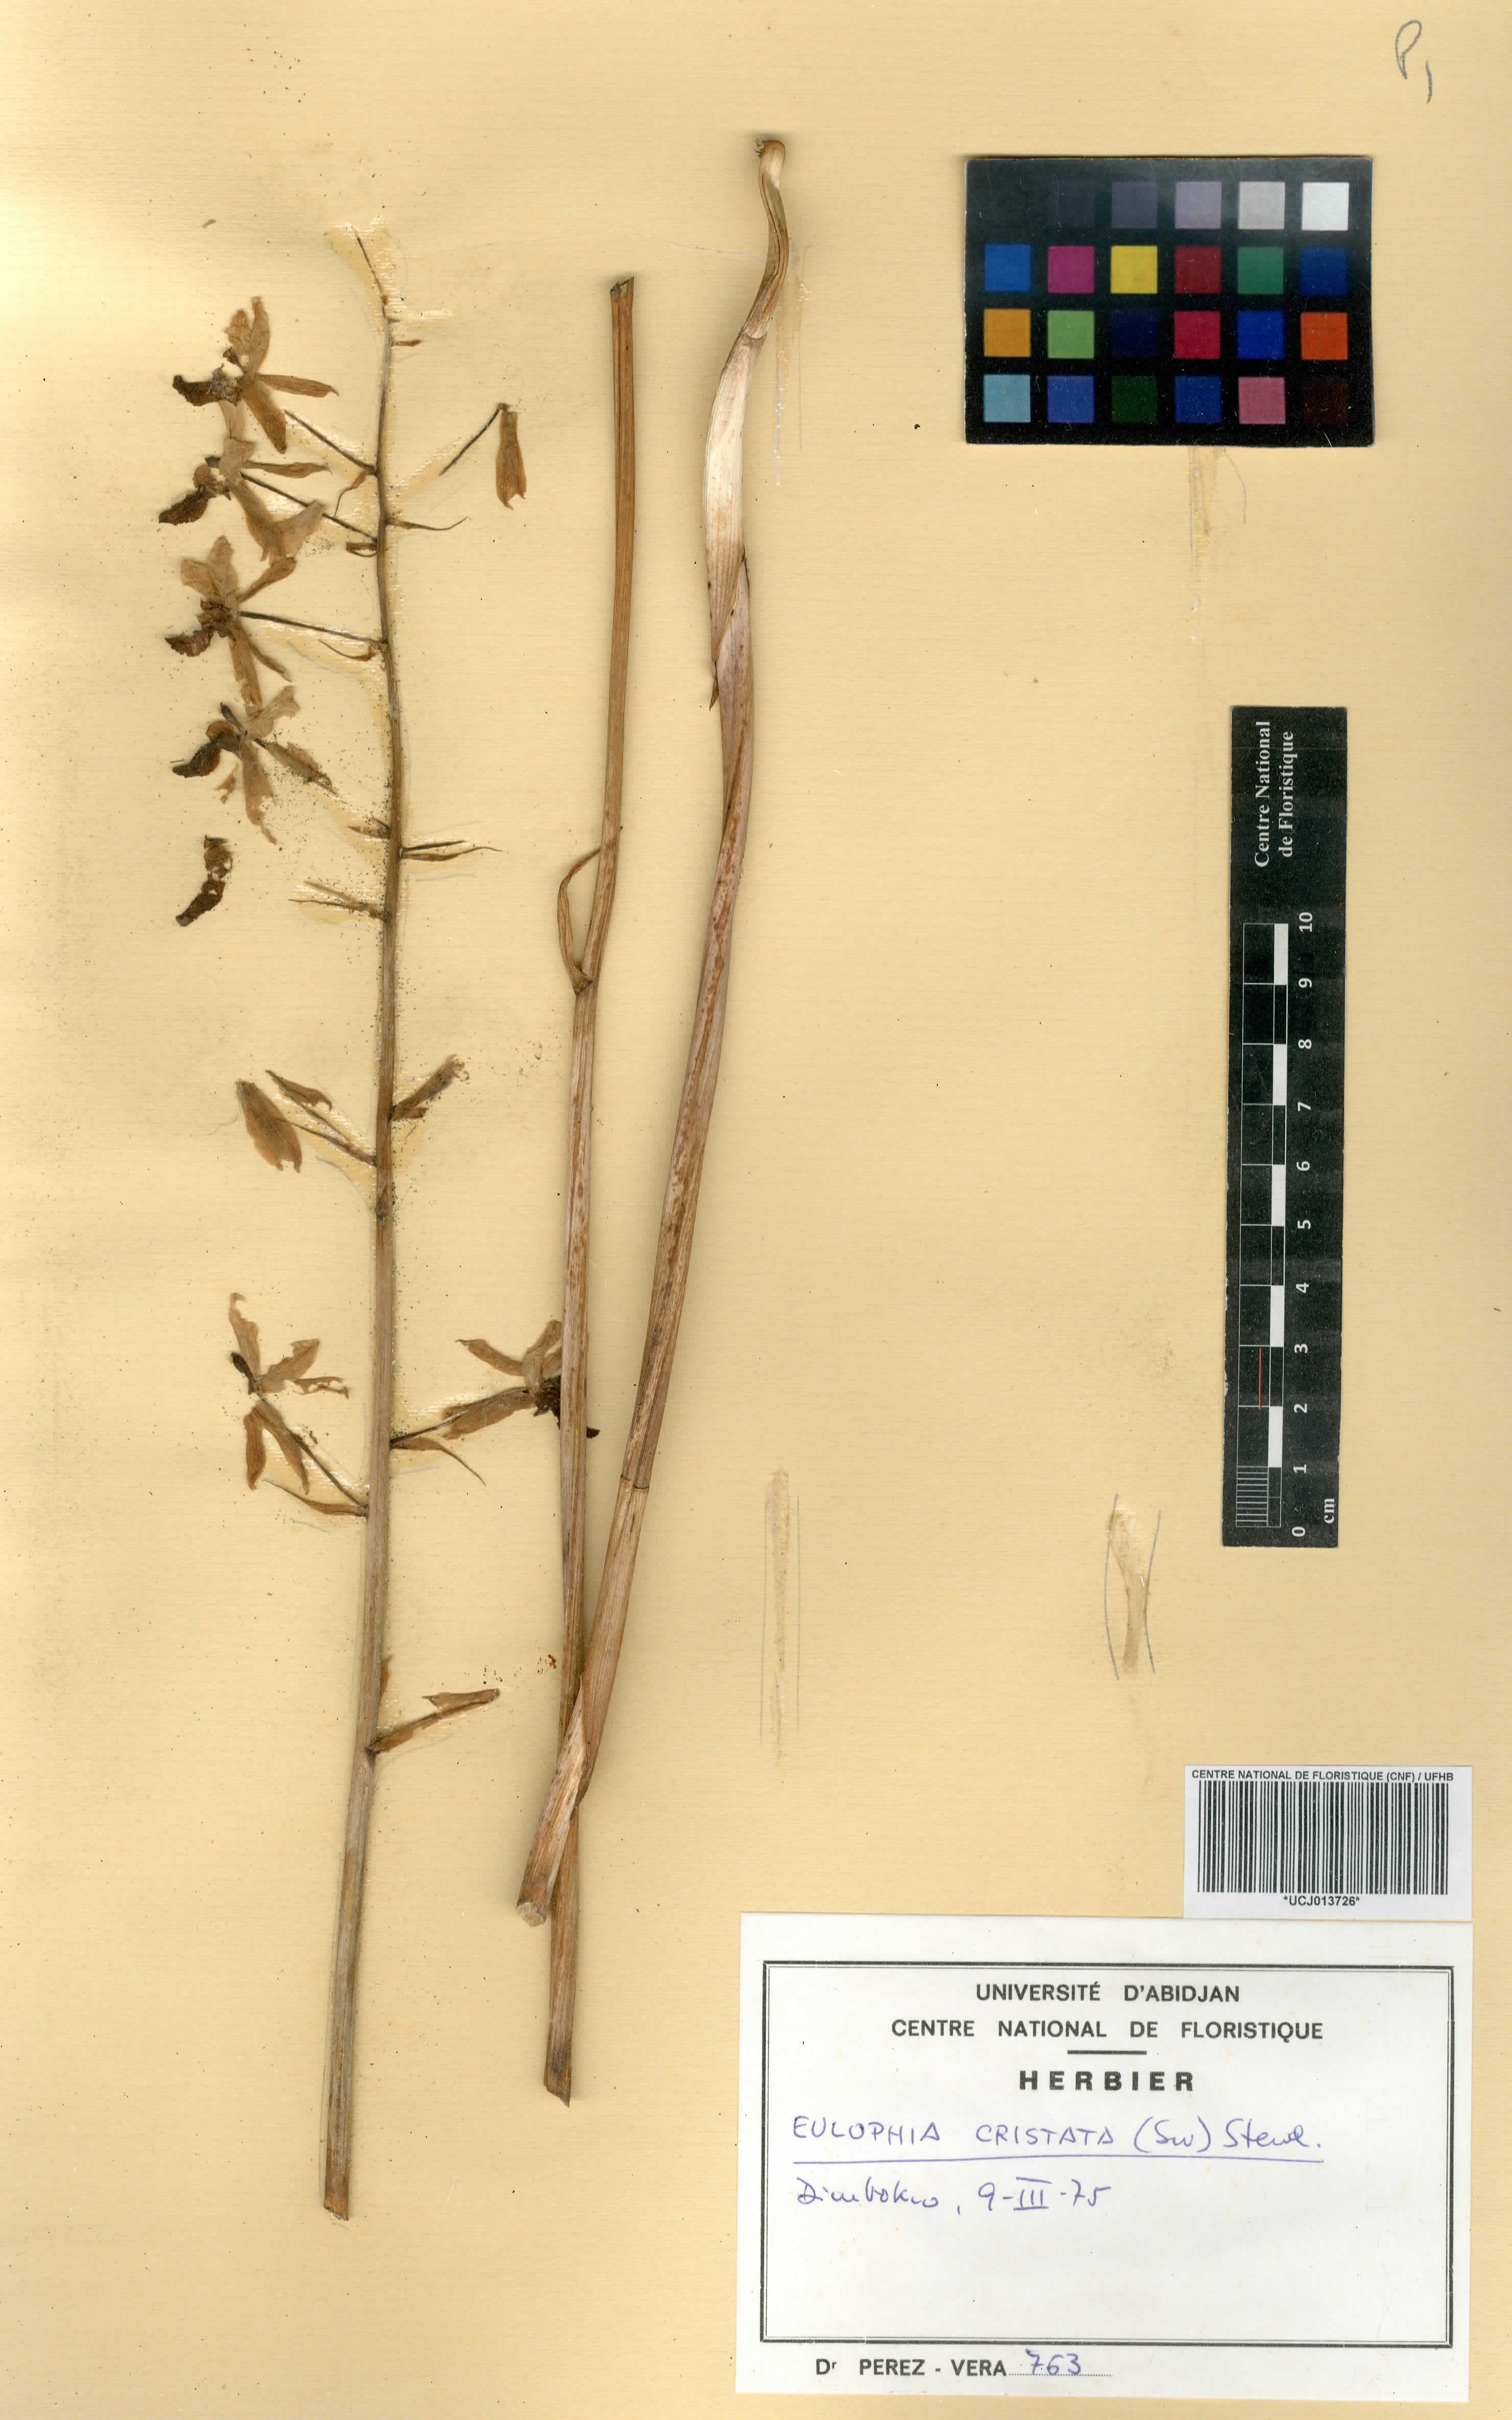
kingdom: Plantae
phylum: Tracheophyta
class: Liliopsida
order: Asparagales
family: Orchidaceae
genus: Eulophia
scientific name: Eulophia cristata
